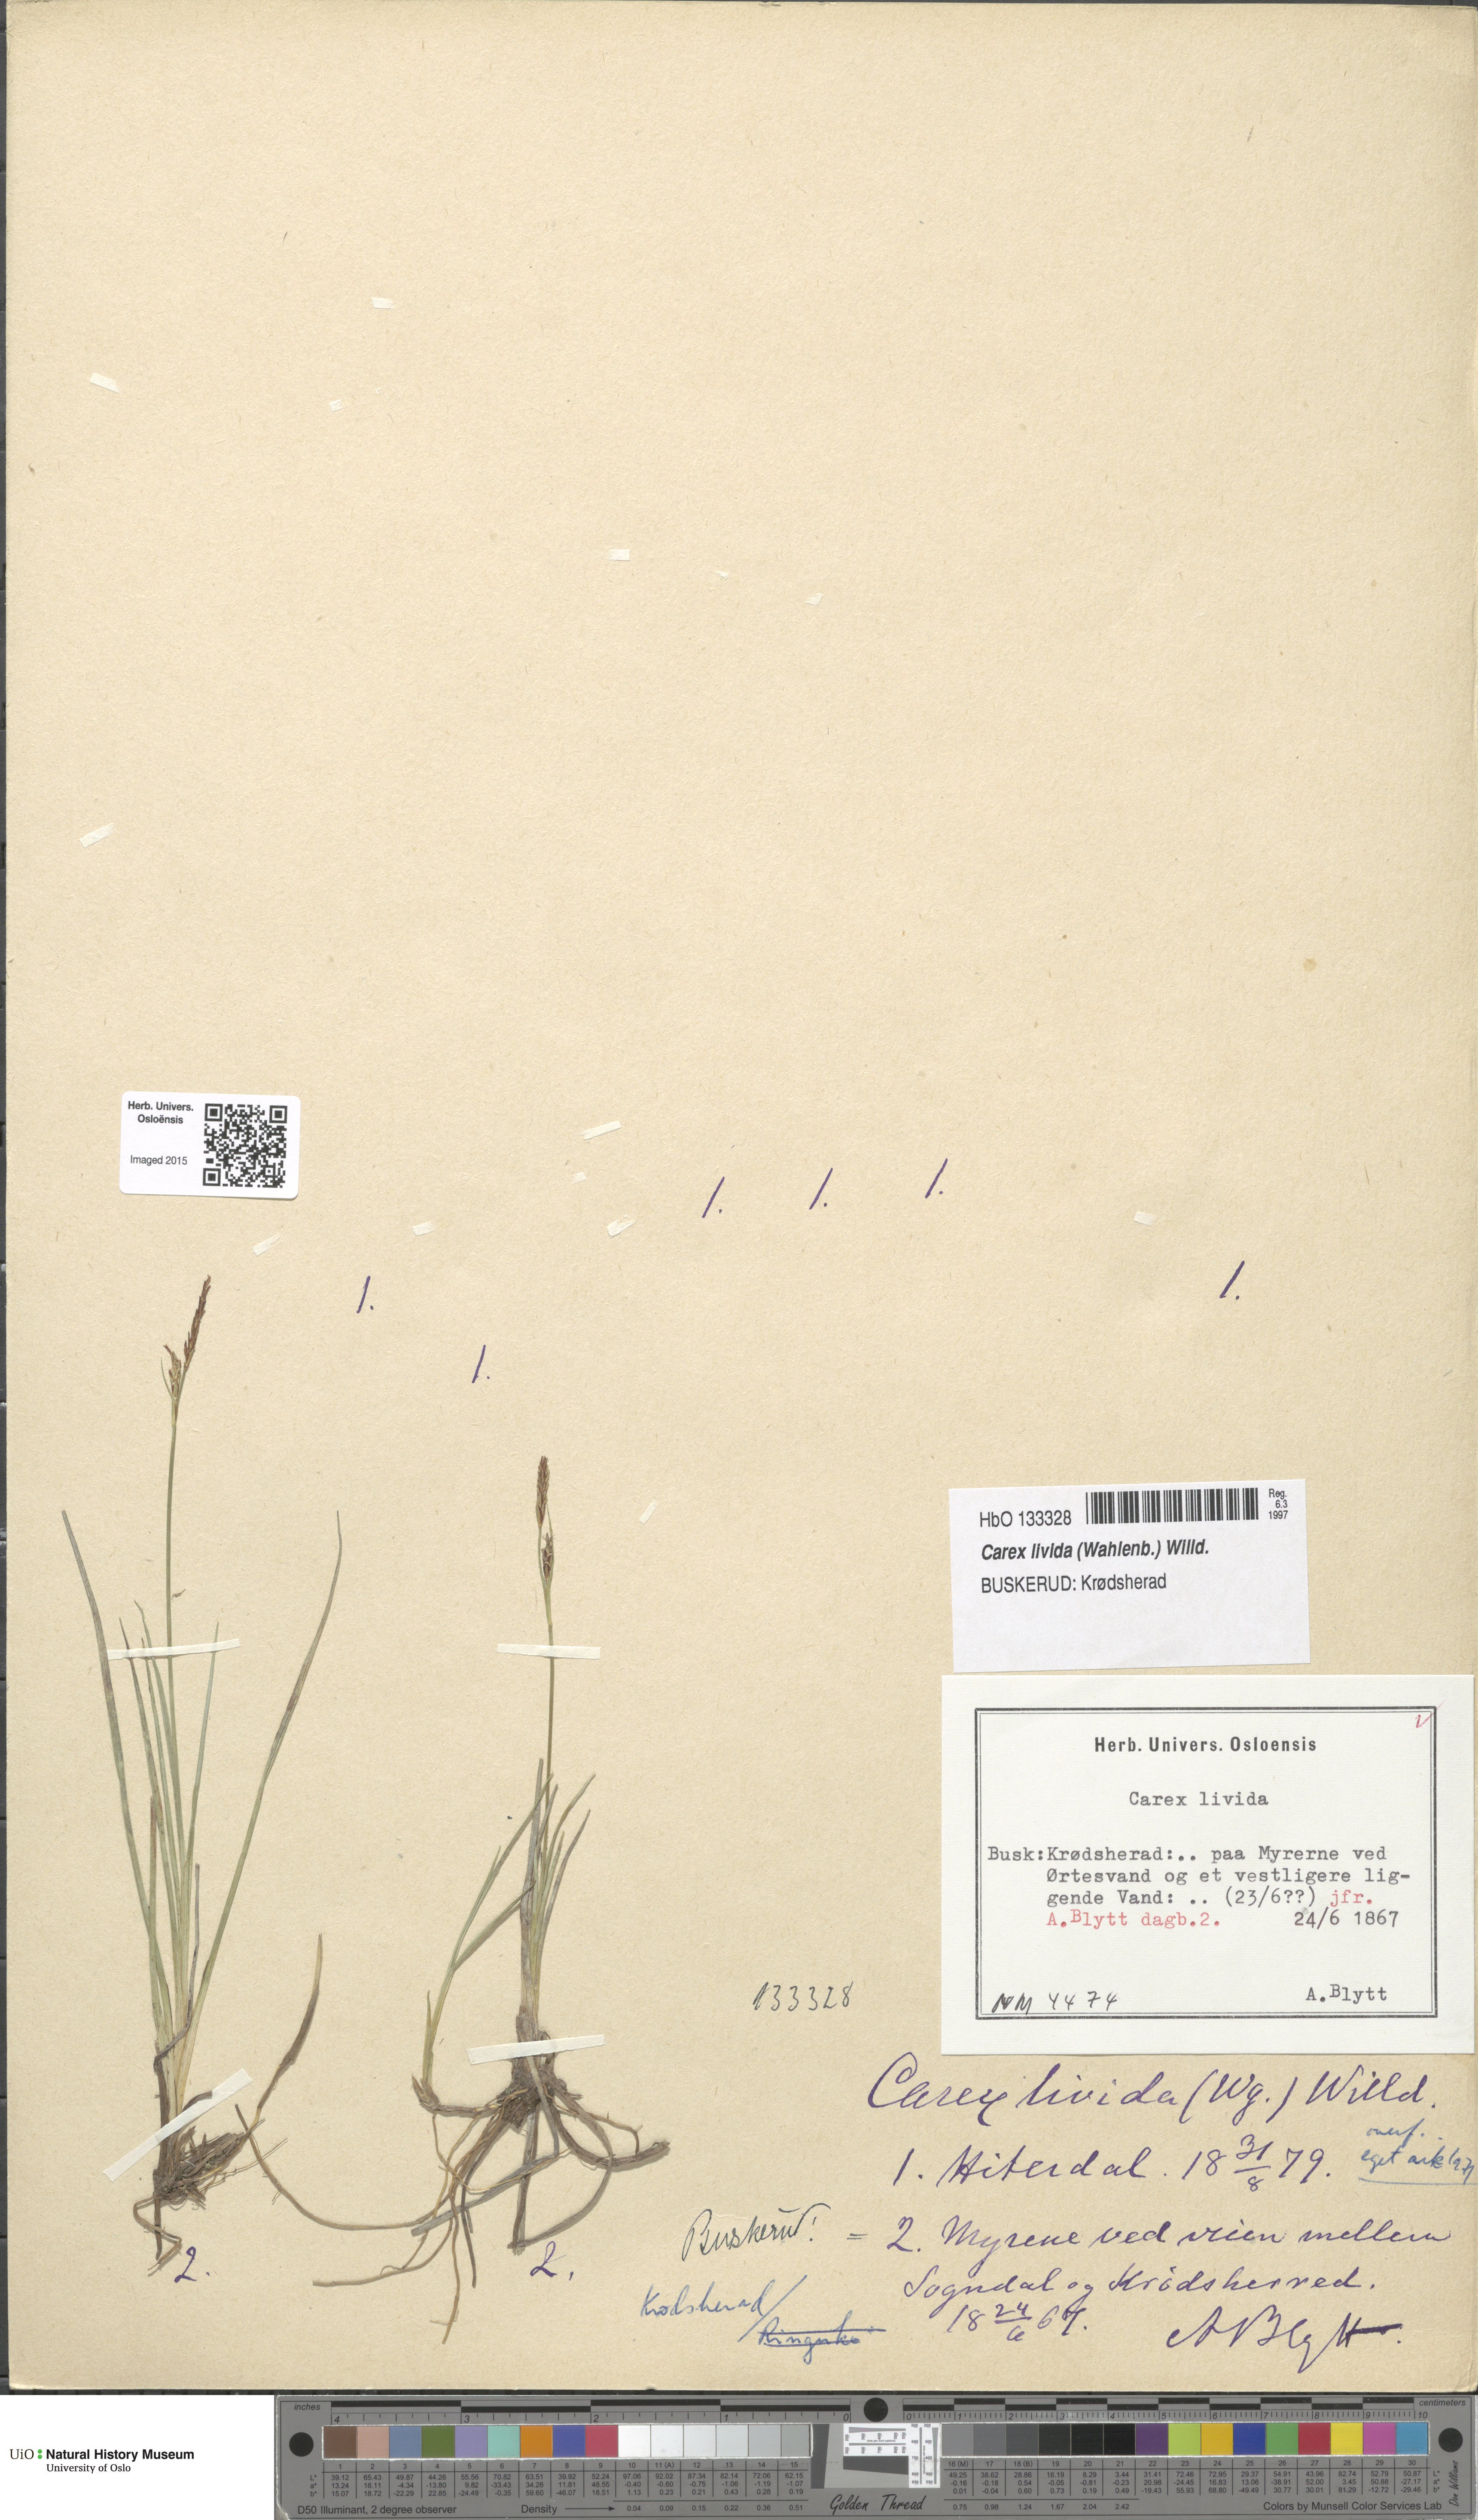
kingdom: Plantae
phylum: Tracheophyta
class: Liliopsida
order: Poales
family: Cyperaceae
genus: Carex
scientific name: Carex livida
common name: Livid sedge
